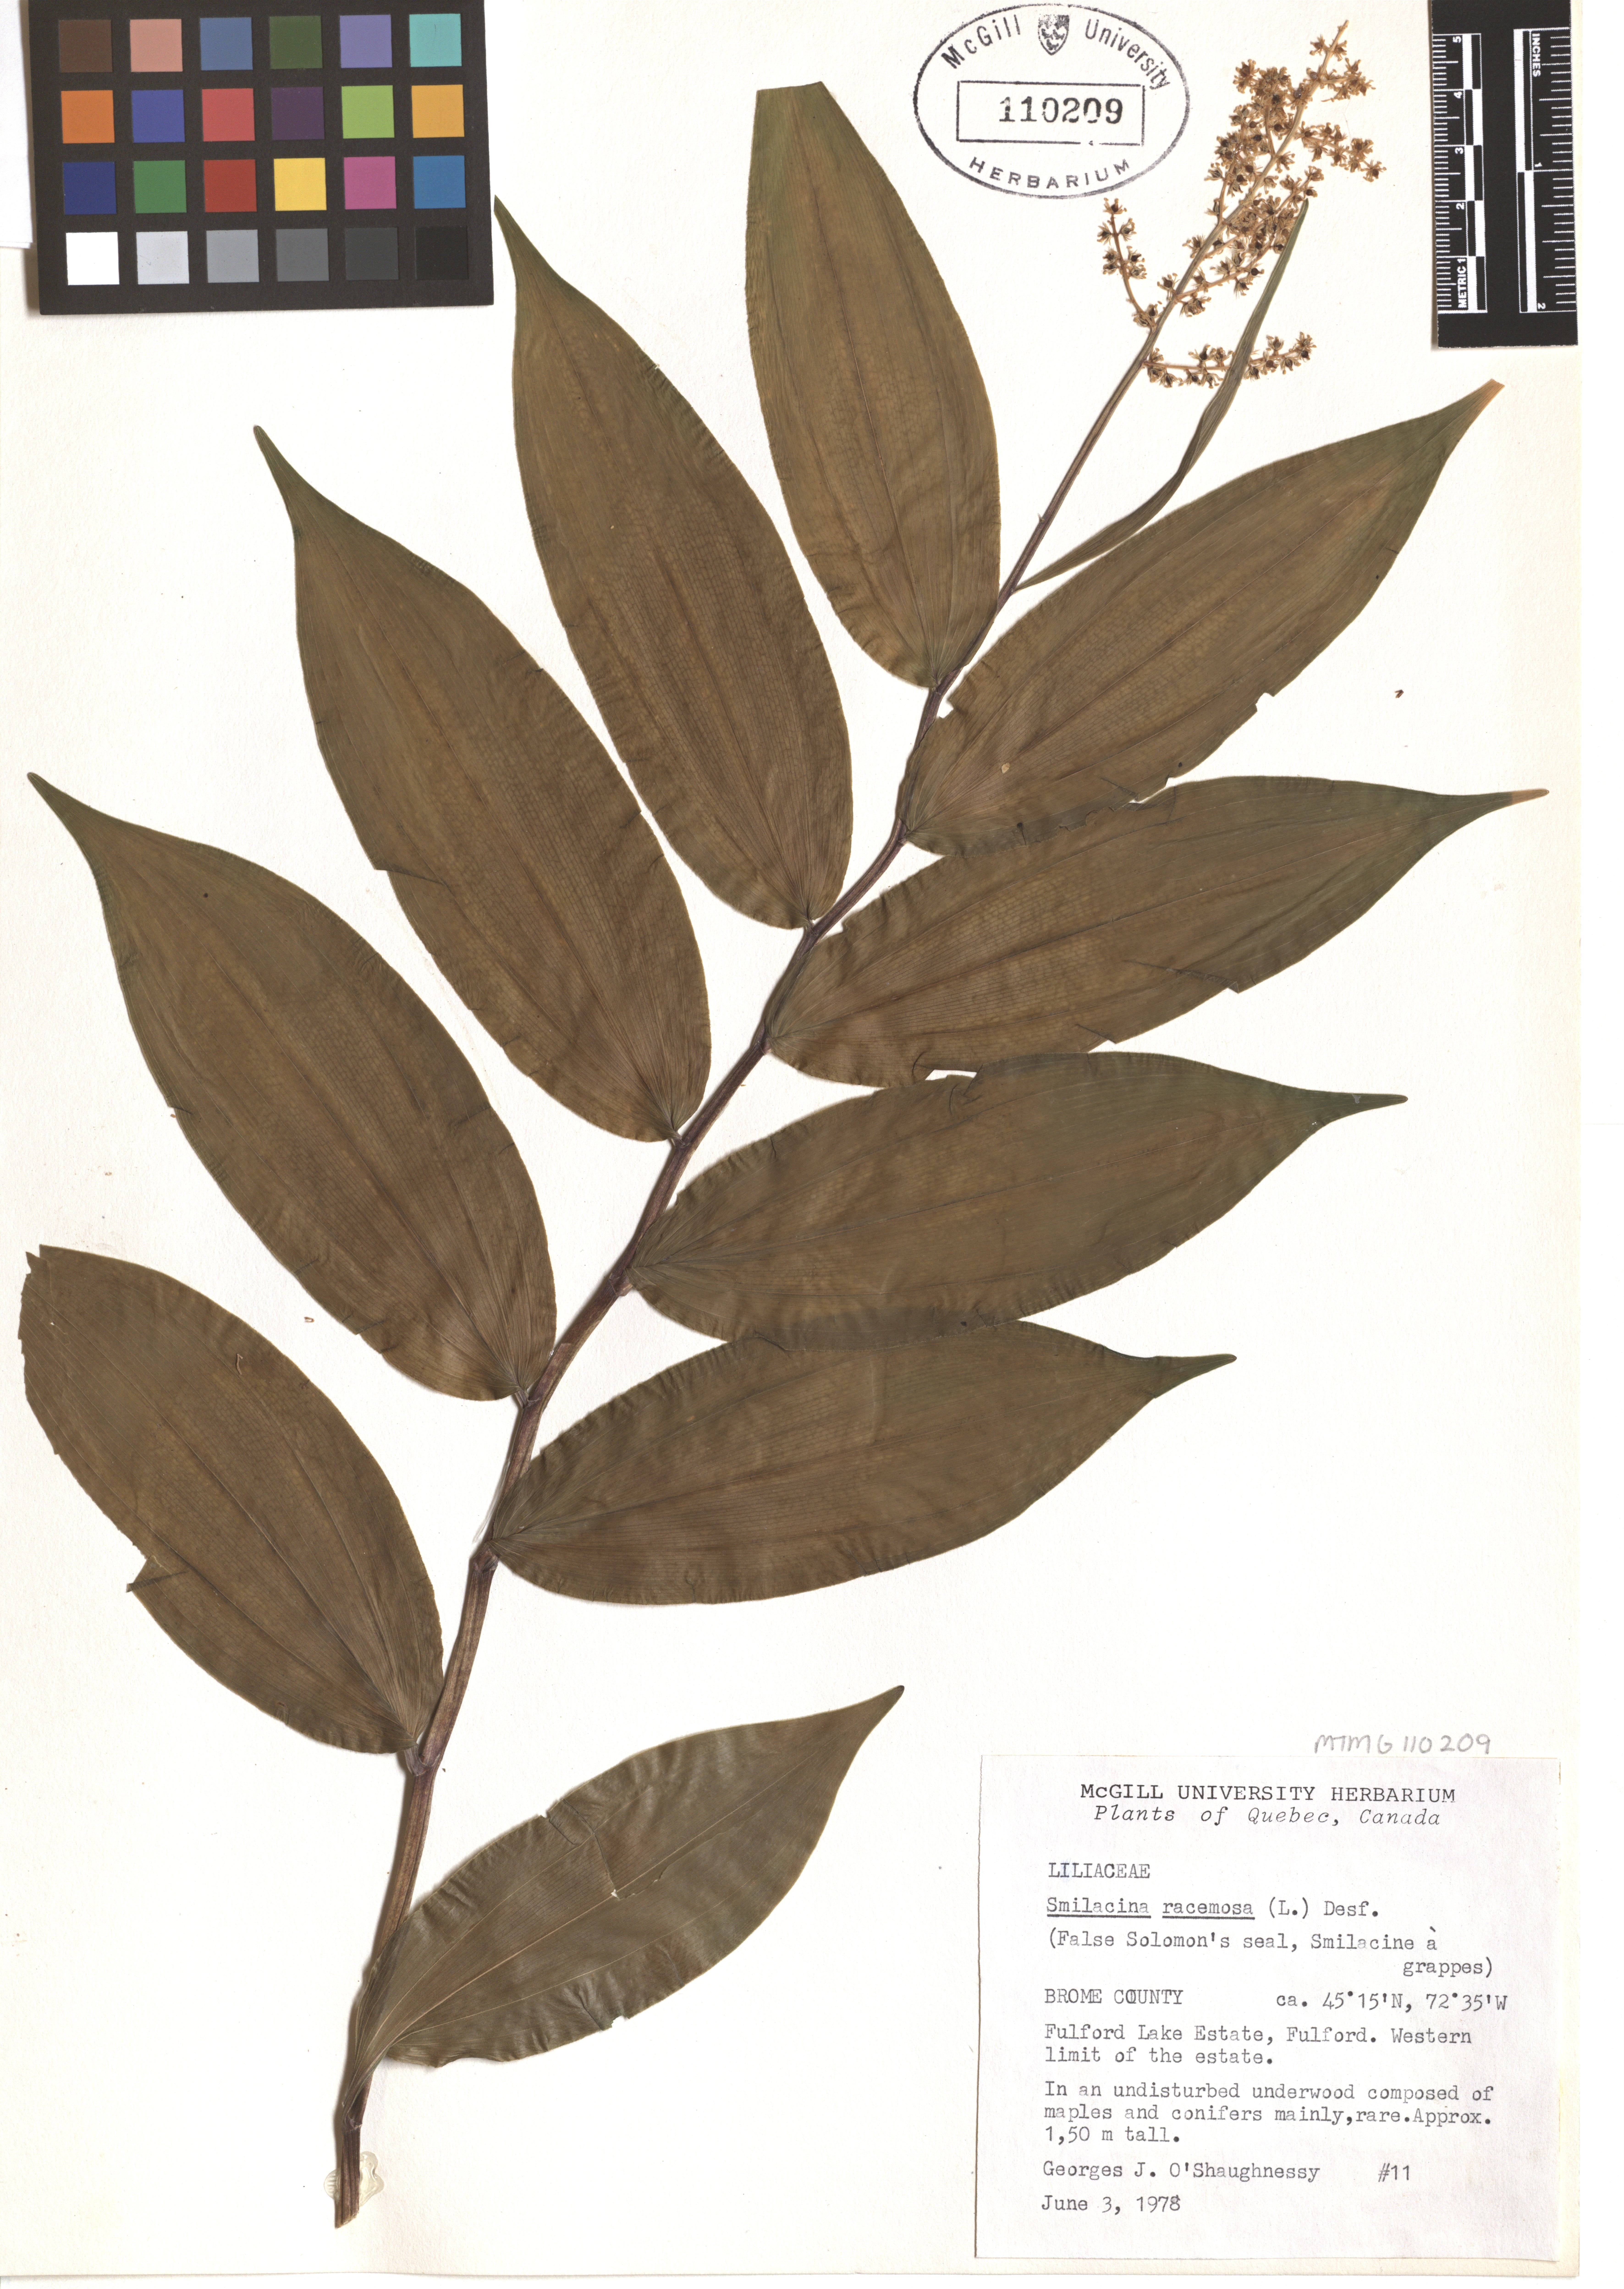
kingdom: Plantae
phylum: Tracheophyta
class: Liliopsida
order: Asparagales
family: Asparagaceae
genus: Maianthemum
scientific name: Maianthemum racemosum
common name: False spikenard
